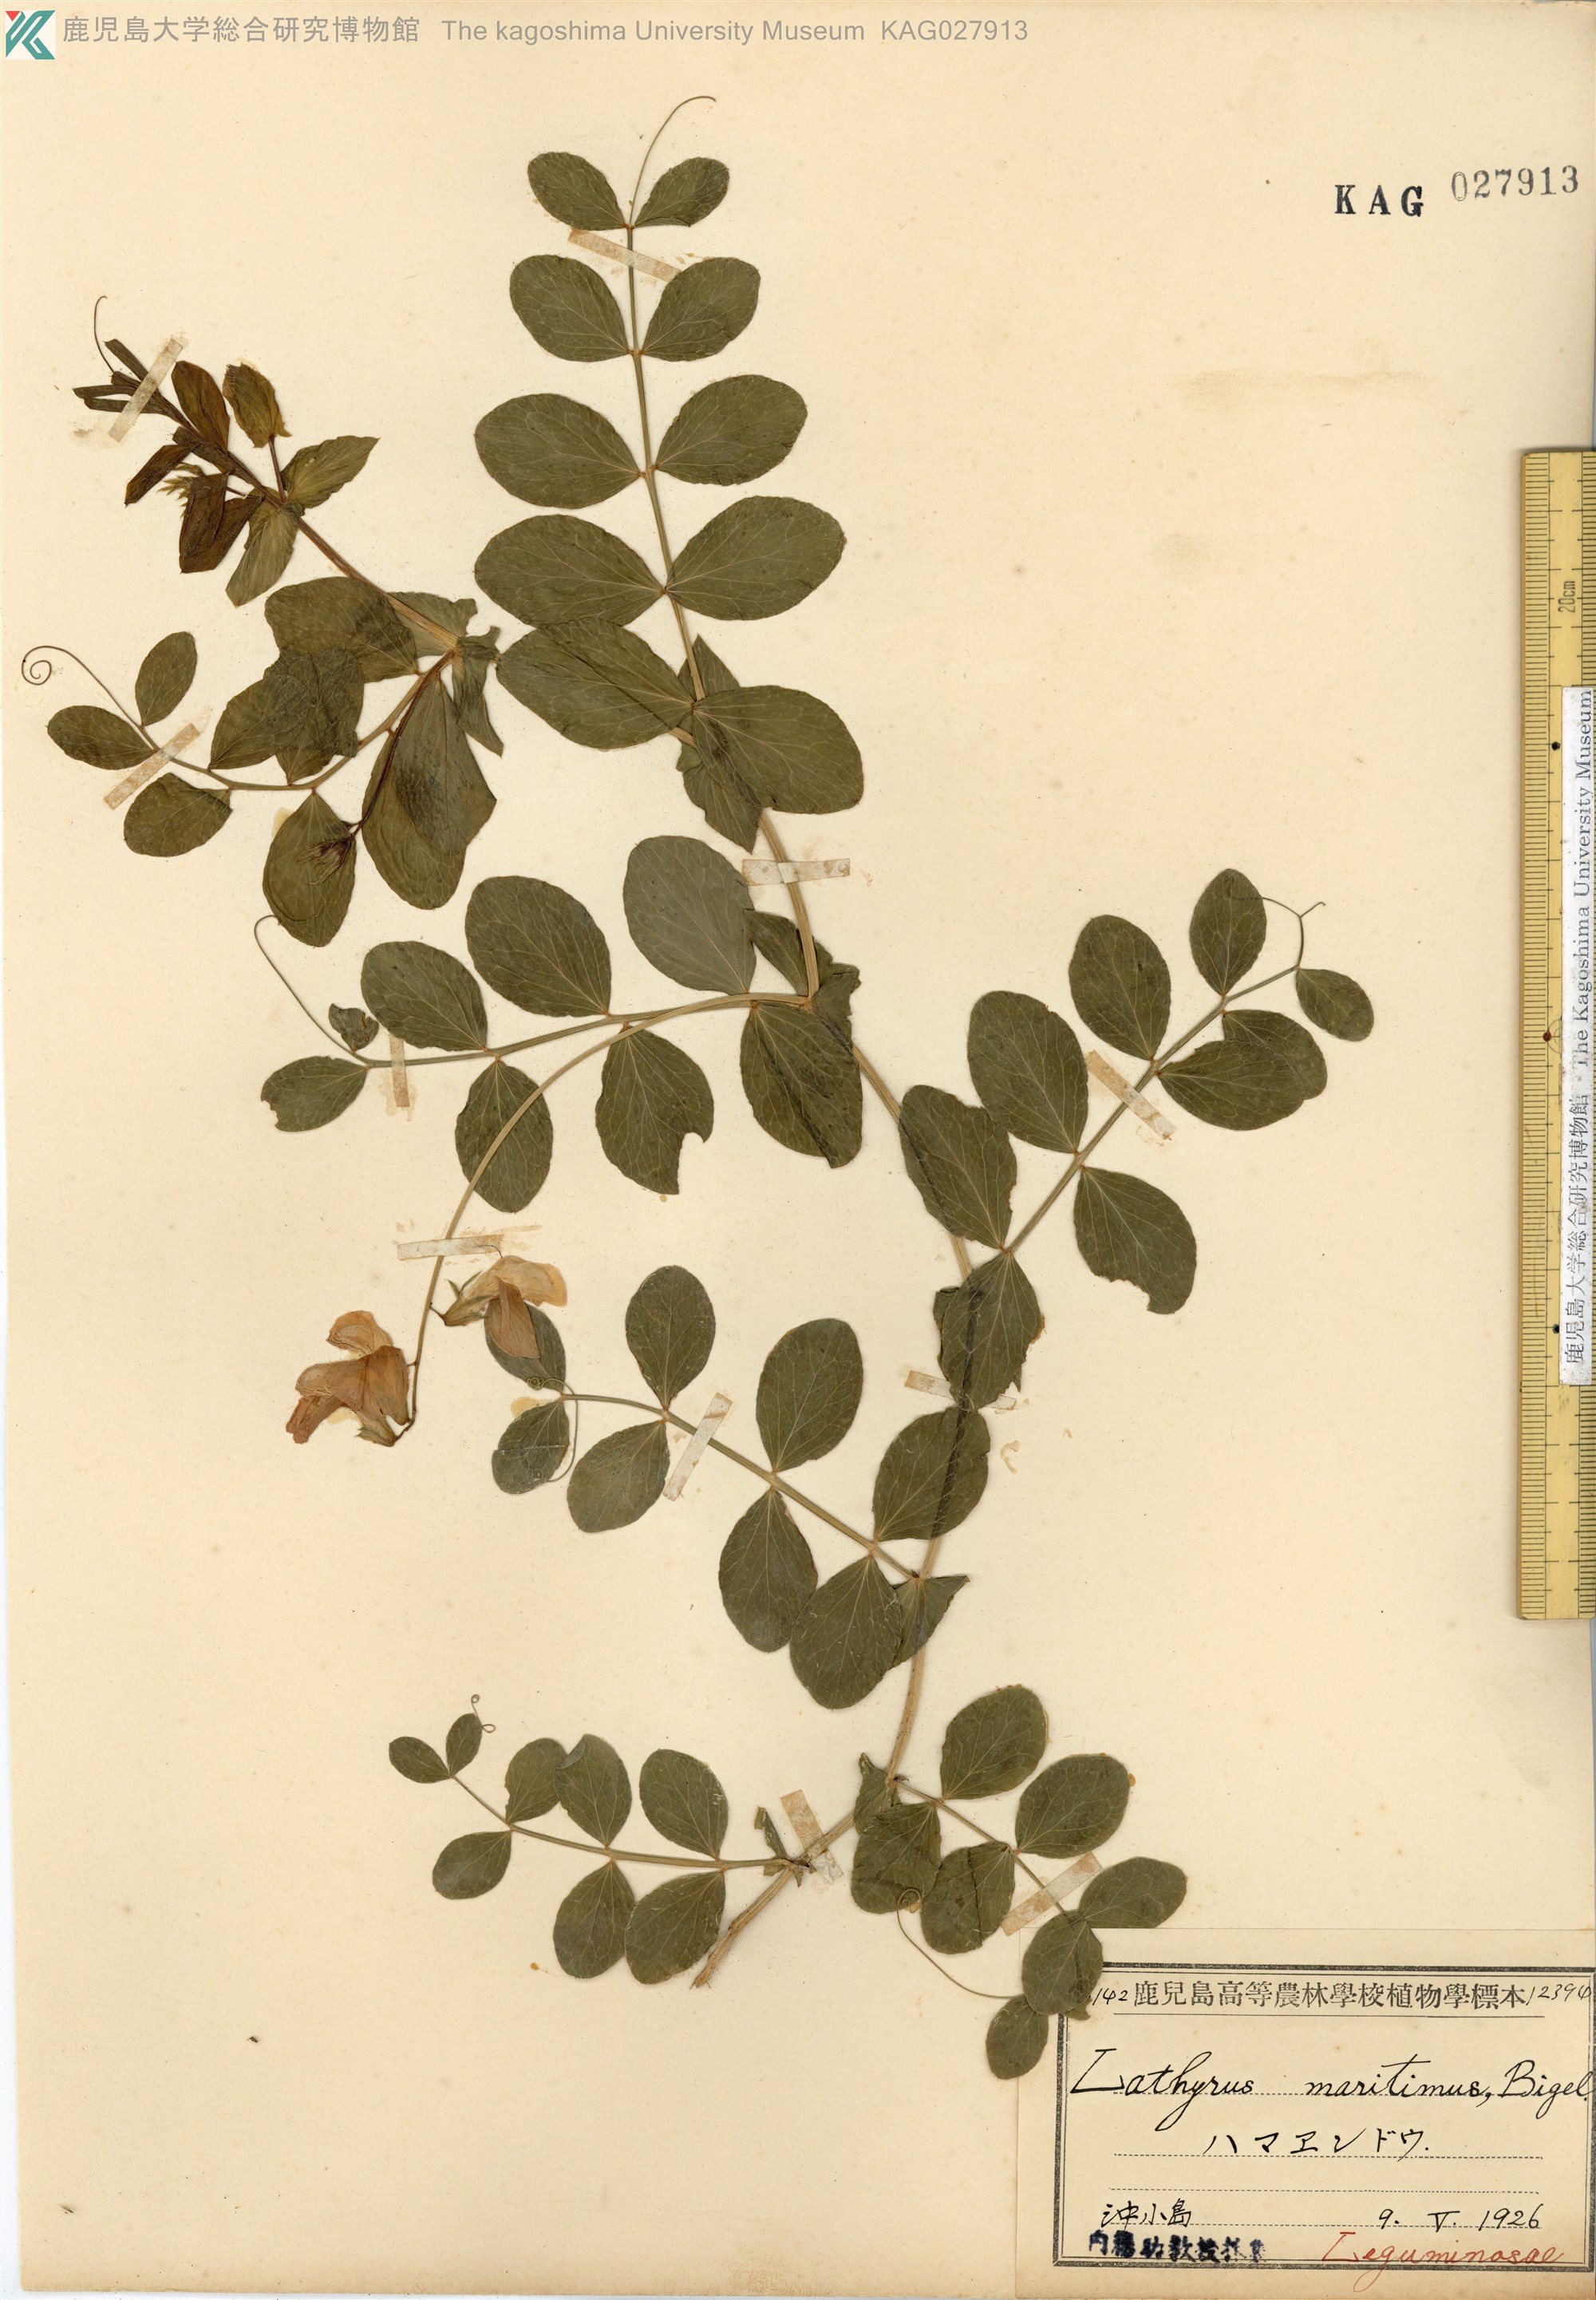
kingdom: Plantae
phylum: Tracheophyta
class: Magnoliopsida
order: Fabales
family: Fabaceae
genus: Lathyrus
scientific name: Lathyrus japonicus
